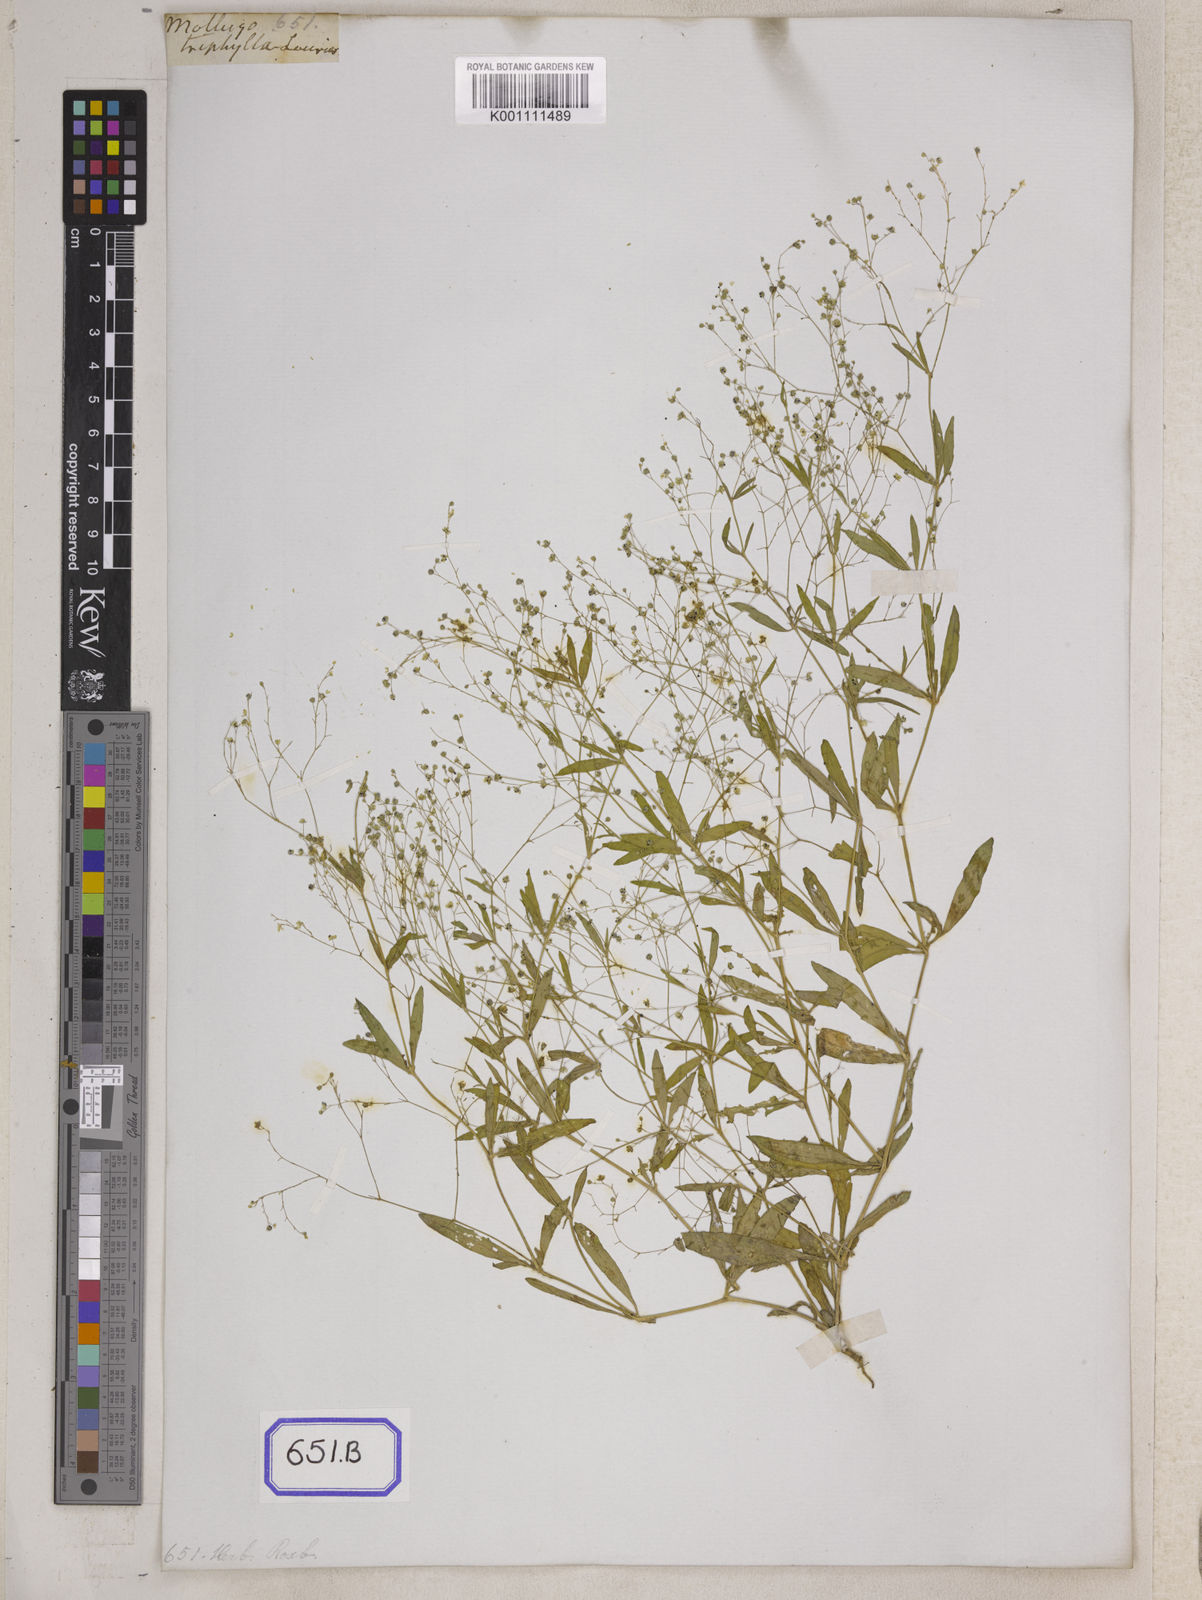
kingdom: Plantae
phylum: Tracheophyta
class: Magnoliopsida
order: Caryophyllales
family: Molluginaceae
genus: Trigastrotheca
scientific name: Trigastrotheca stricta
